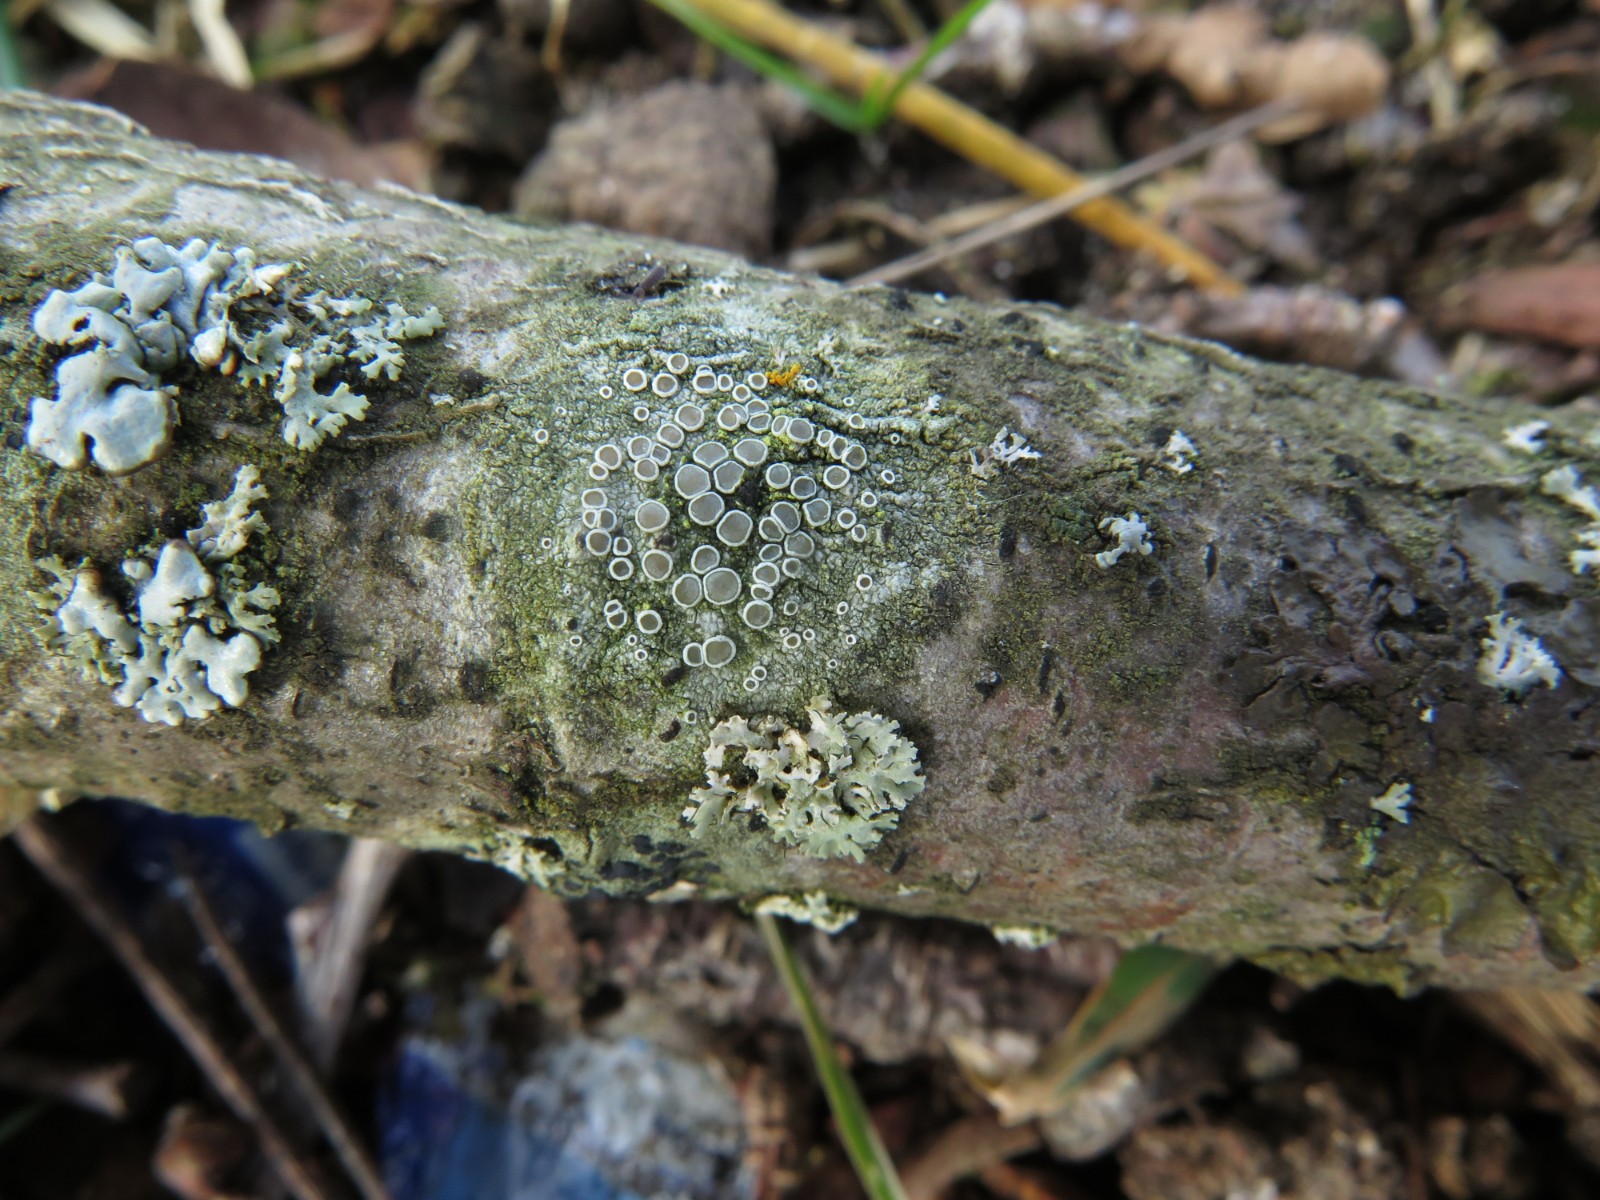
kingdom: Fungi
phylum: Ascomycota
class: Lecanoromycetes
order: Lecanorales
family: Lecanoraceae
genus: Lecanora
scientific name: Lecanora chlarotera
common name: brun kantskivelav
